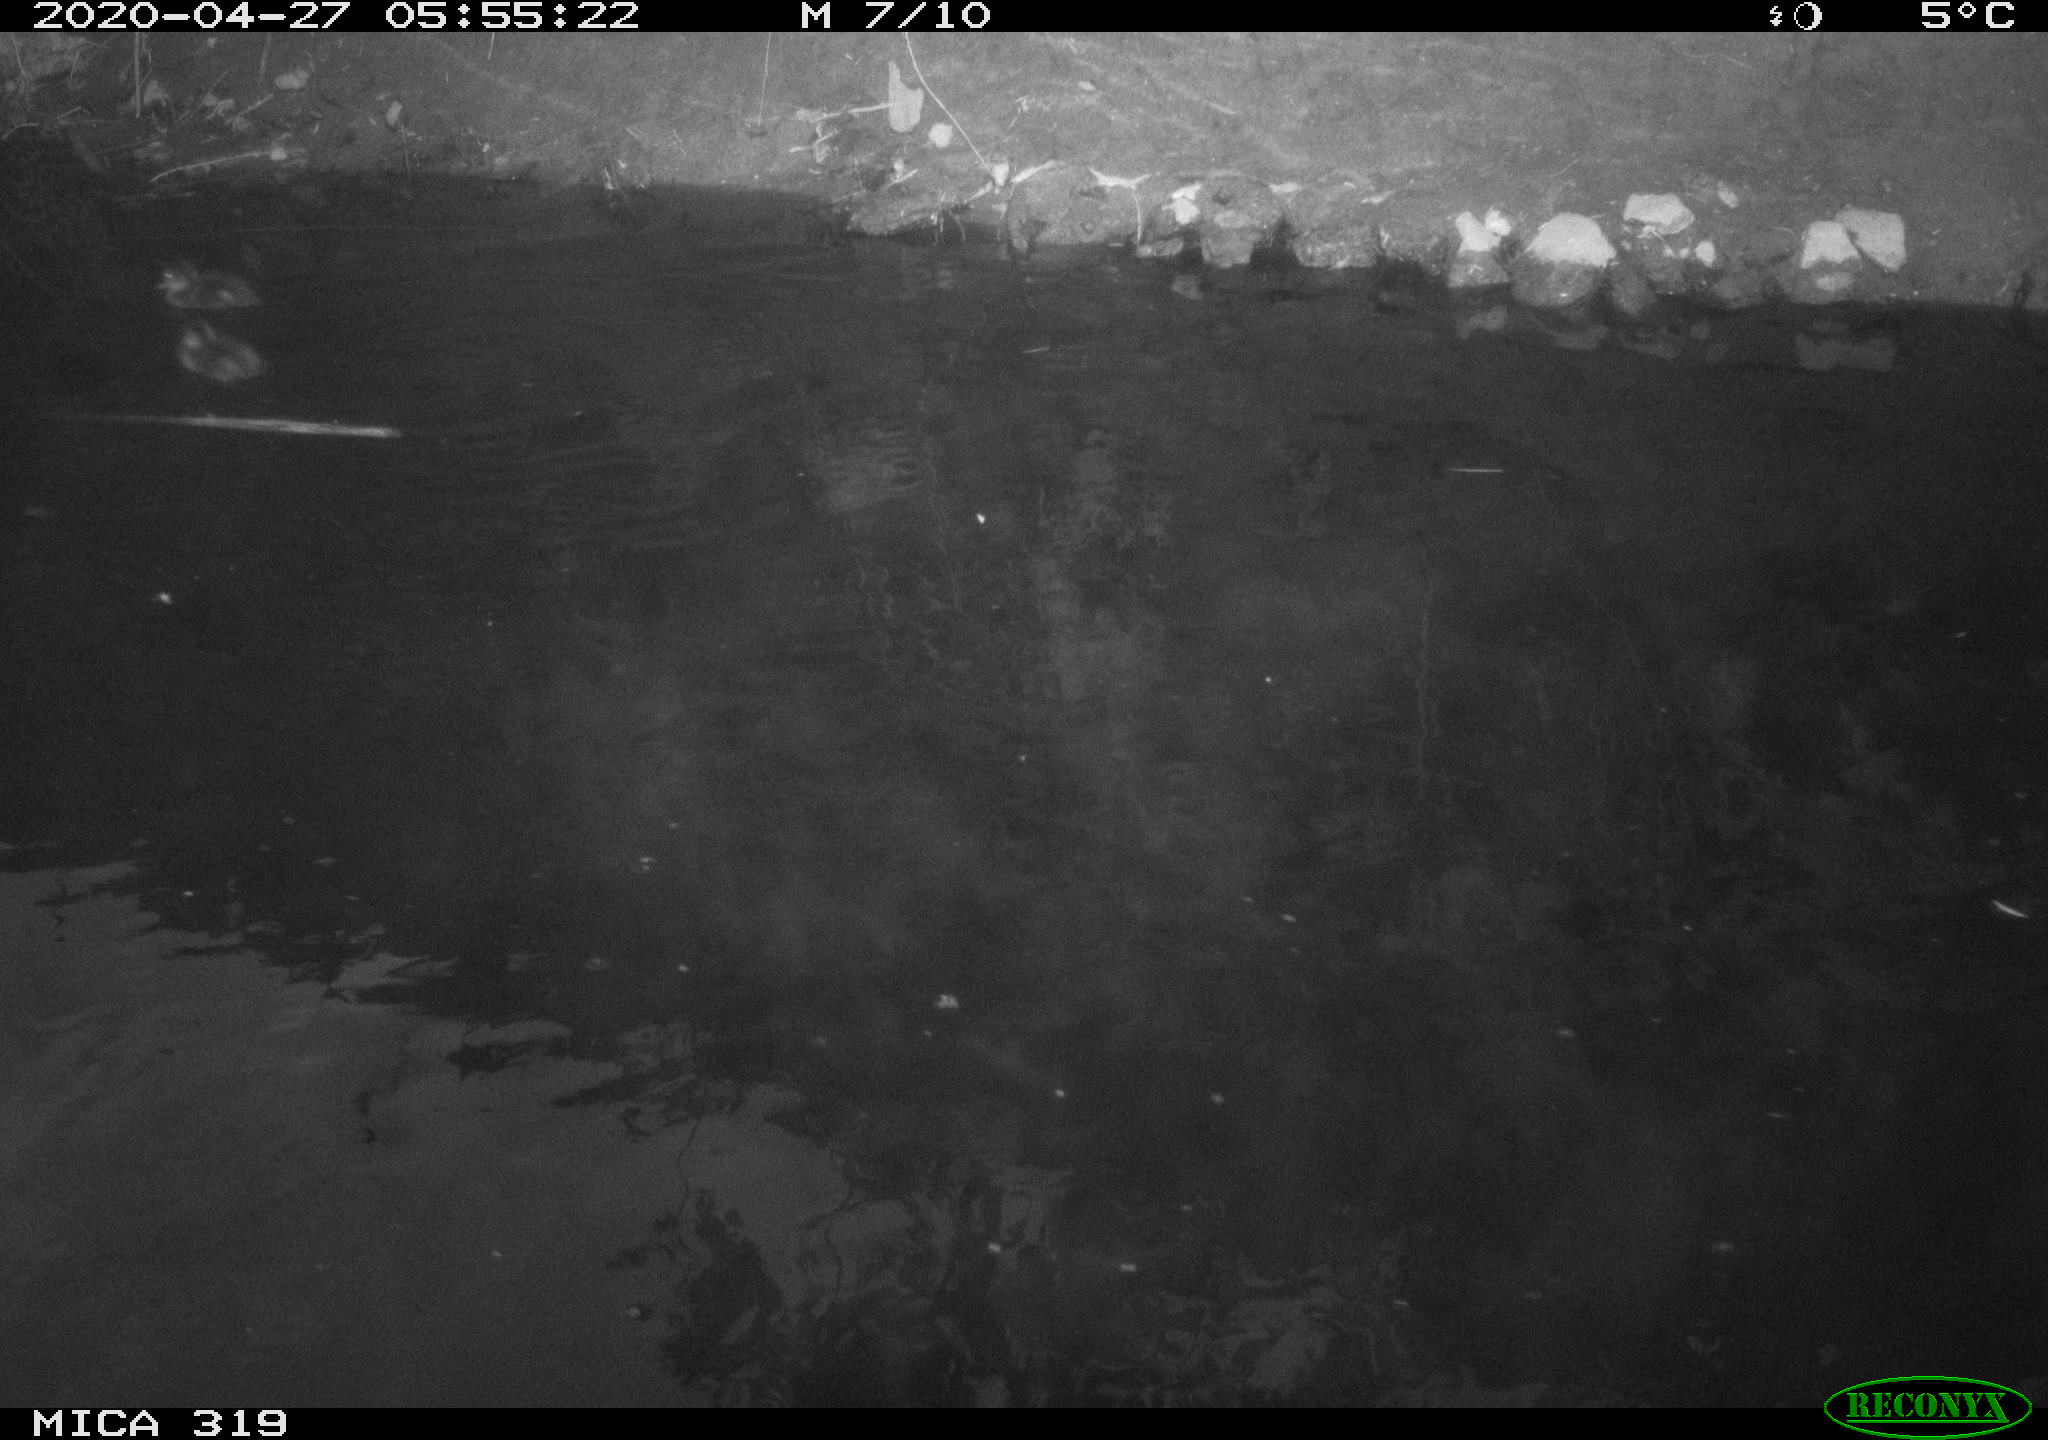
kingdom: Animalia
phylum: Chordata
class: Aves
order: Anseriformes
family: Anatidae
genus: Anas
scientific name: Anas platyrhynchos
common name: Mallard
